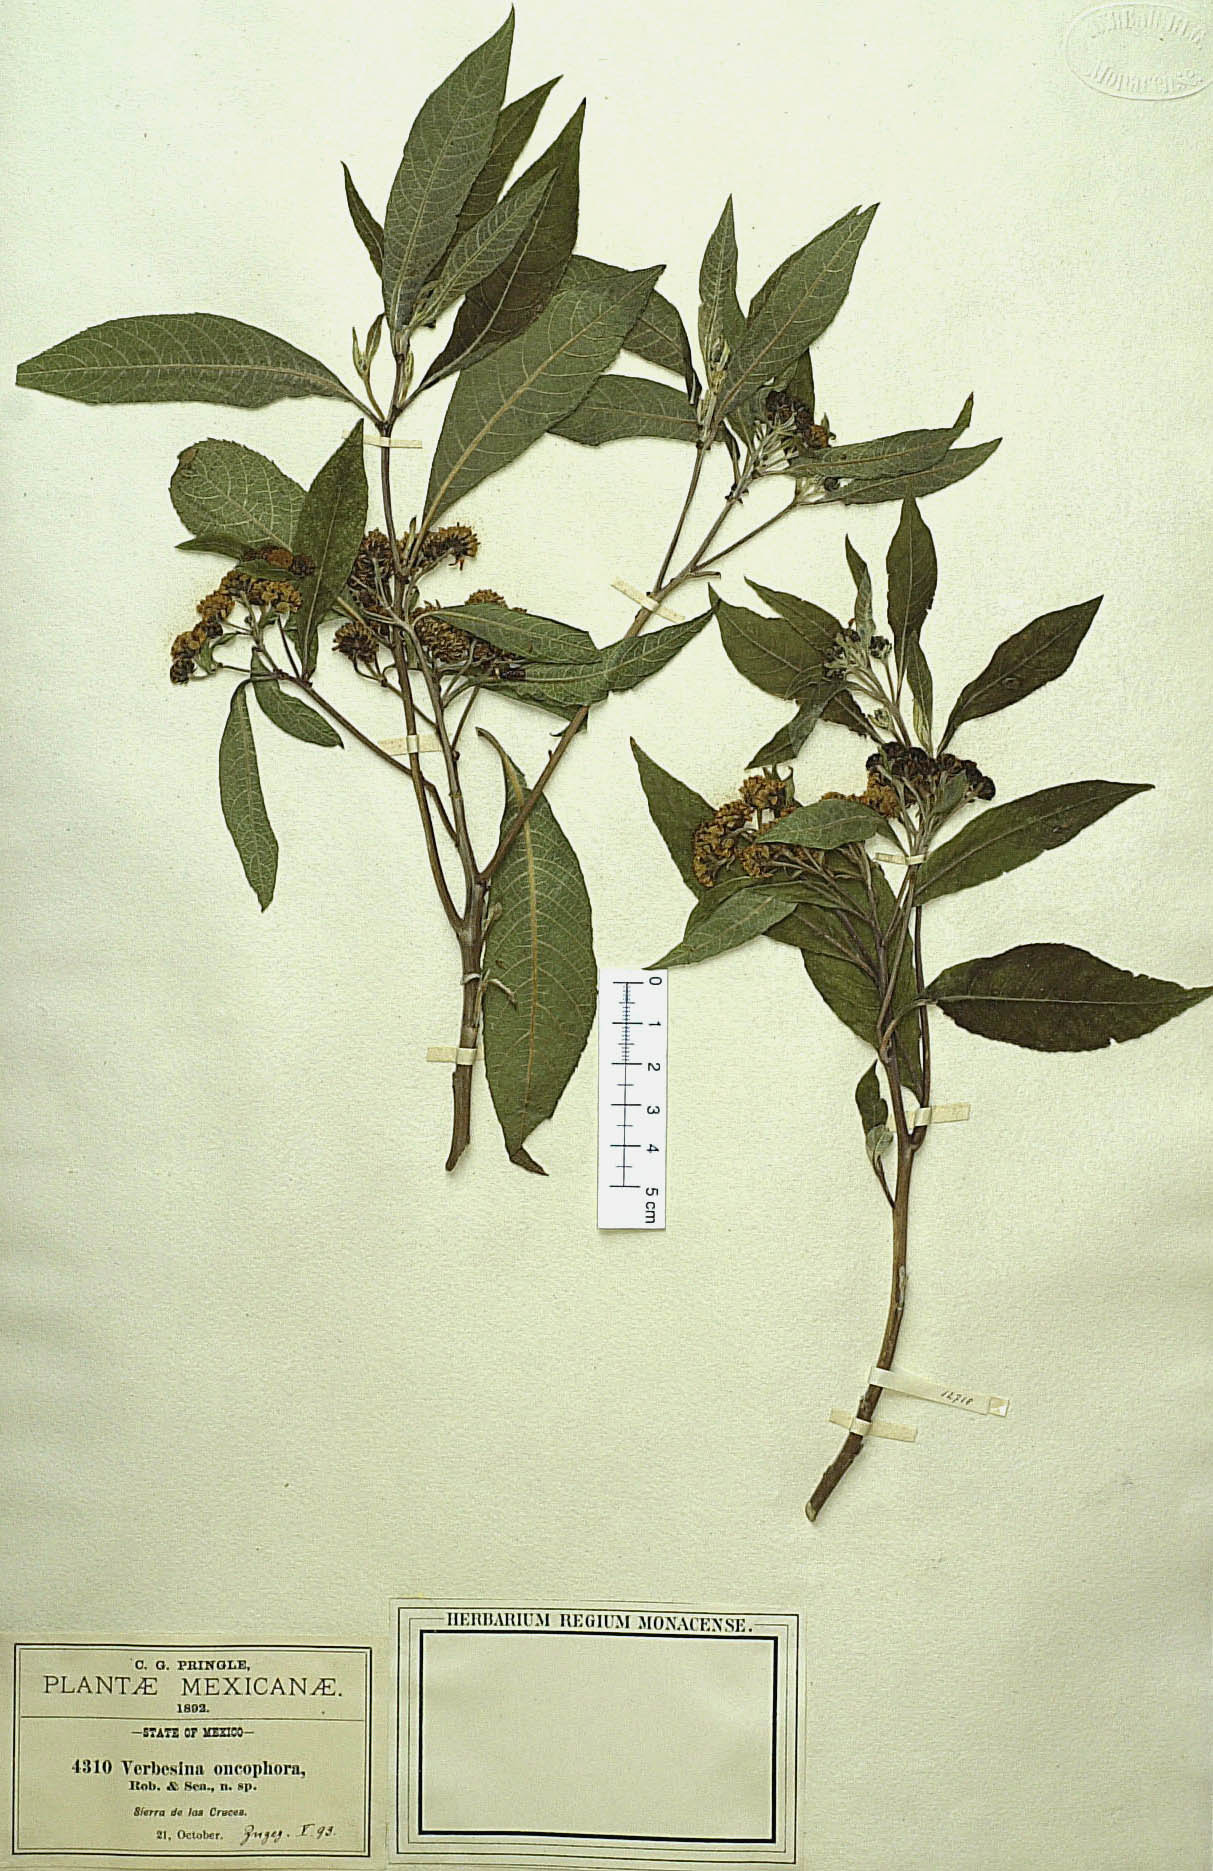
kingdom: Plantae
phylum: Tracheophyta
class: Magnoliopsida
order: Asterales
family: Asteraceae
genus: Verbesina
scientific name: Verbesina oncophora
